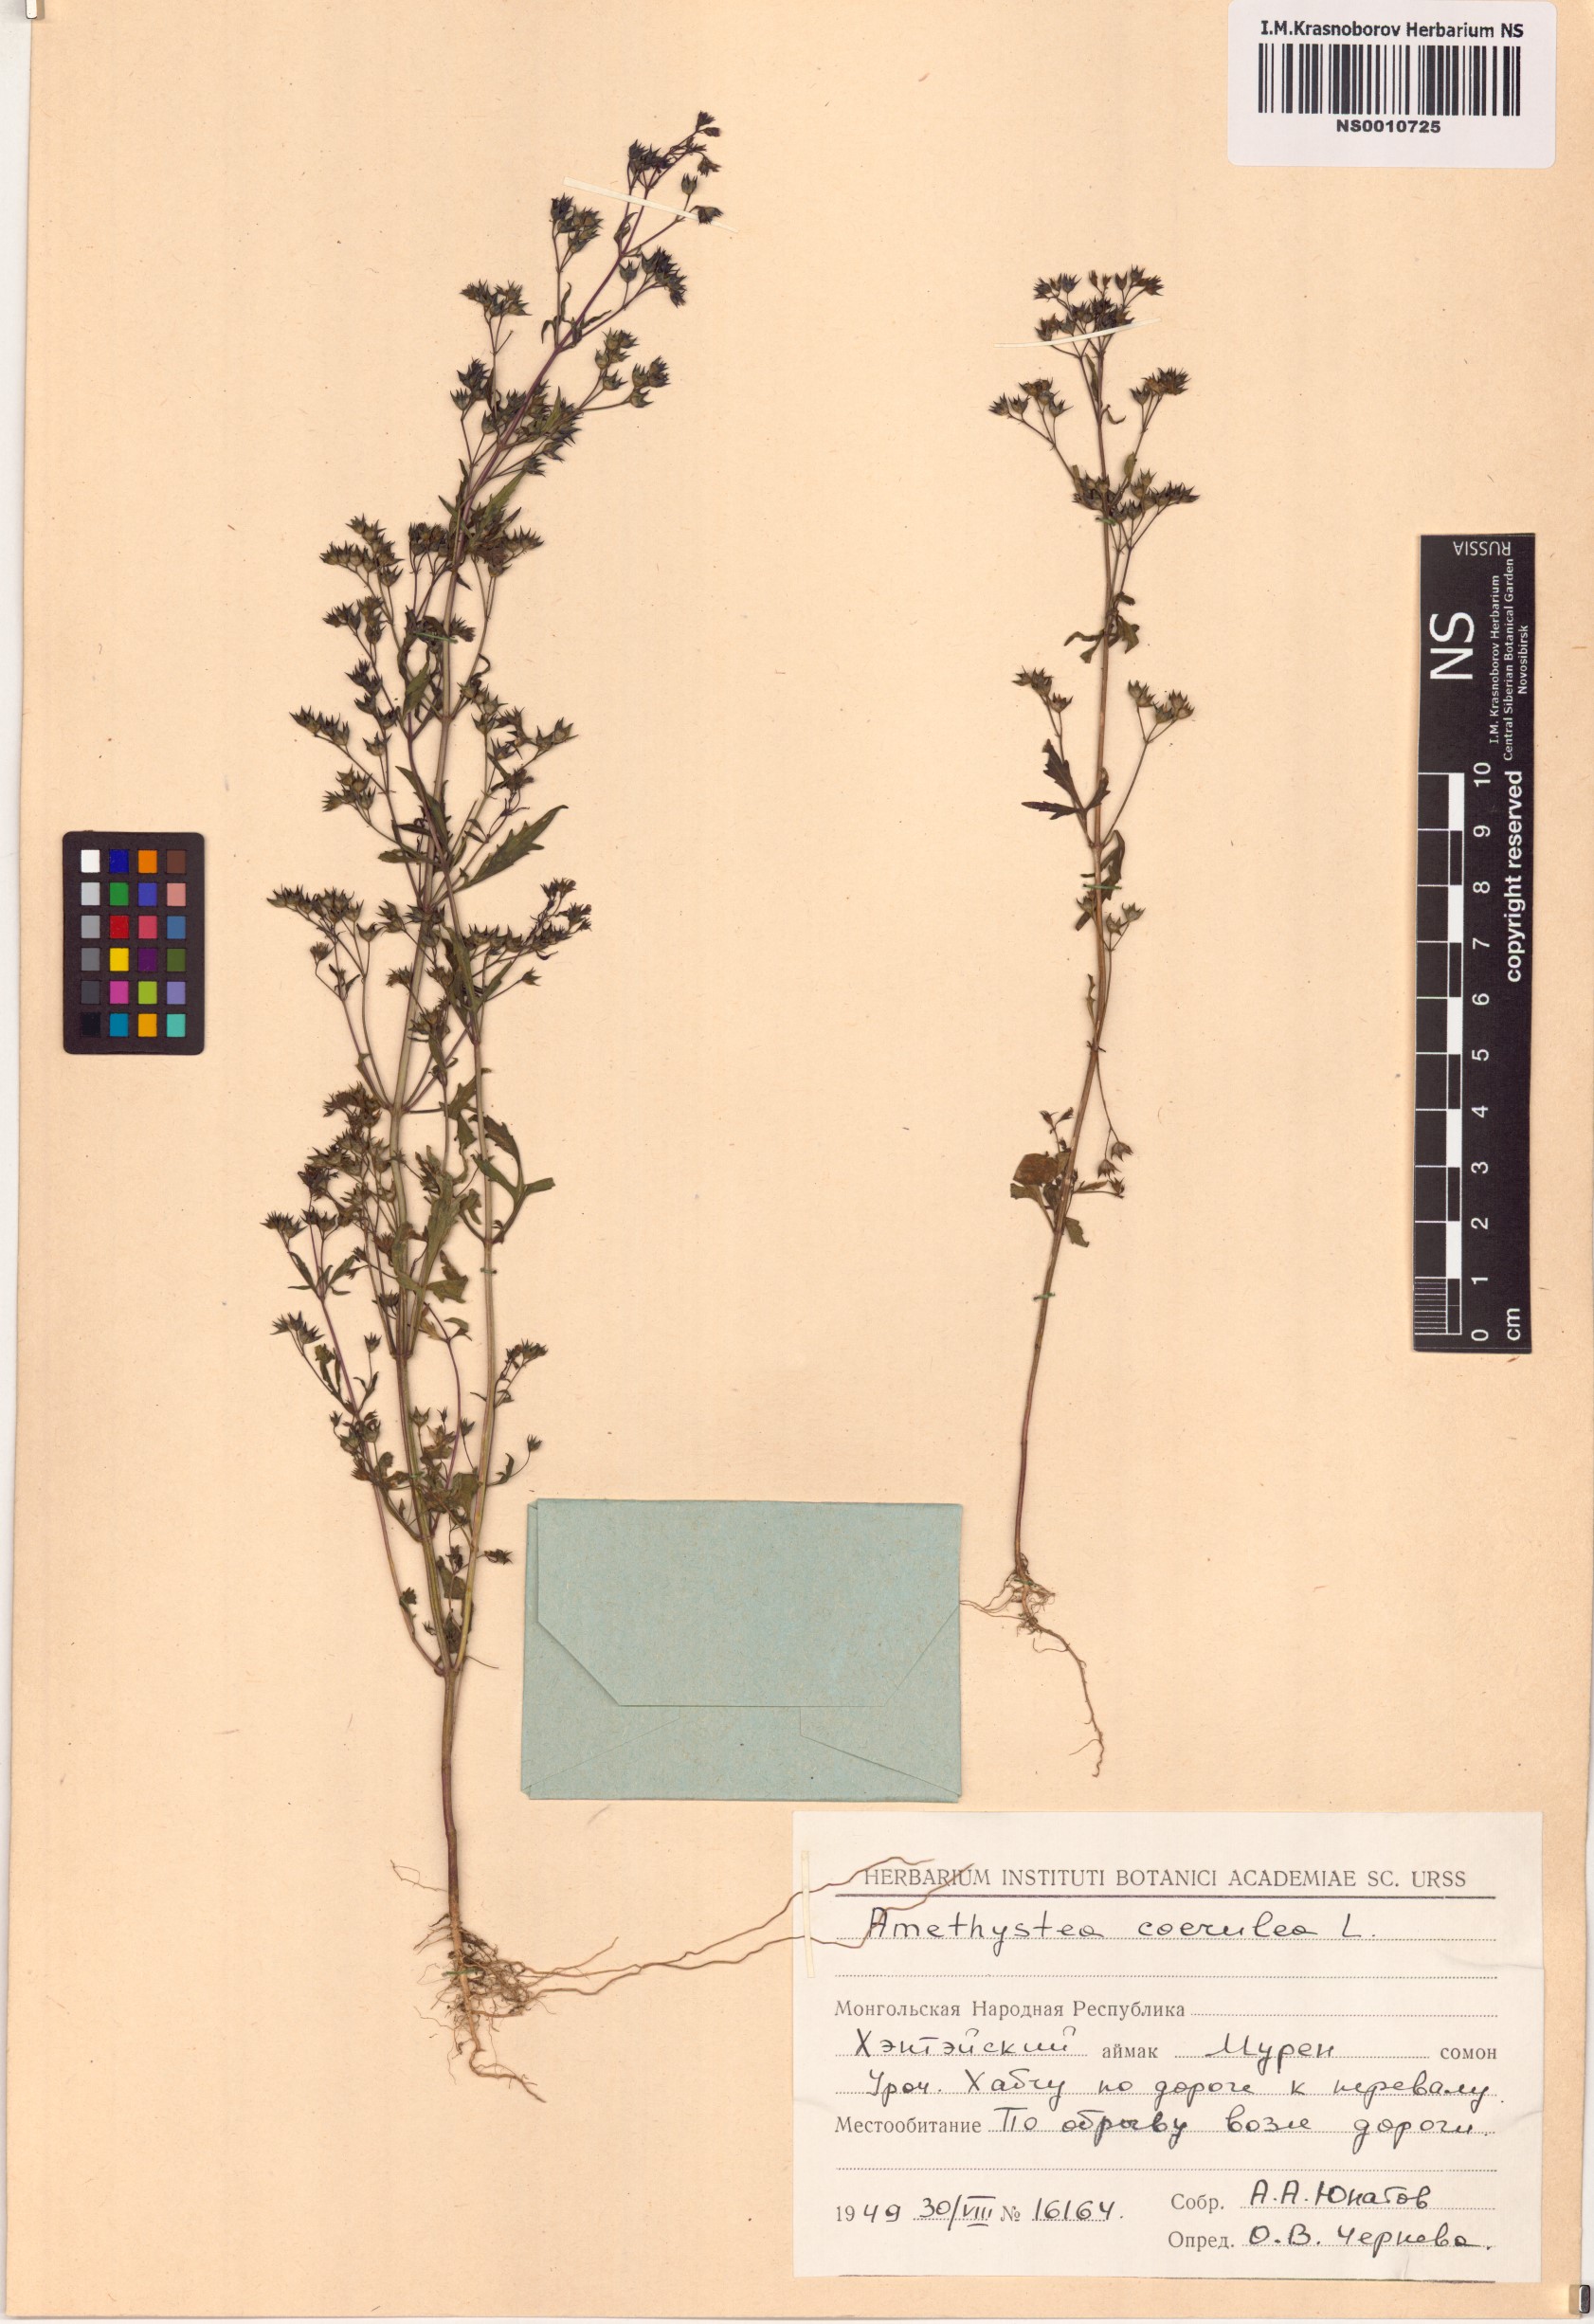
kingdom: Plantae
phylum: Tracheophyta
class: Magnoliopsida
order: Lamiales
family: Lamiaceae
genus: Amethystea
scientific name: Amethystea caerulea
